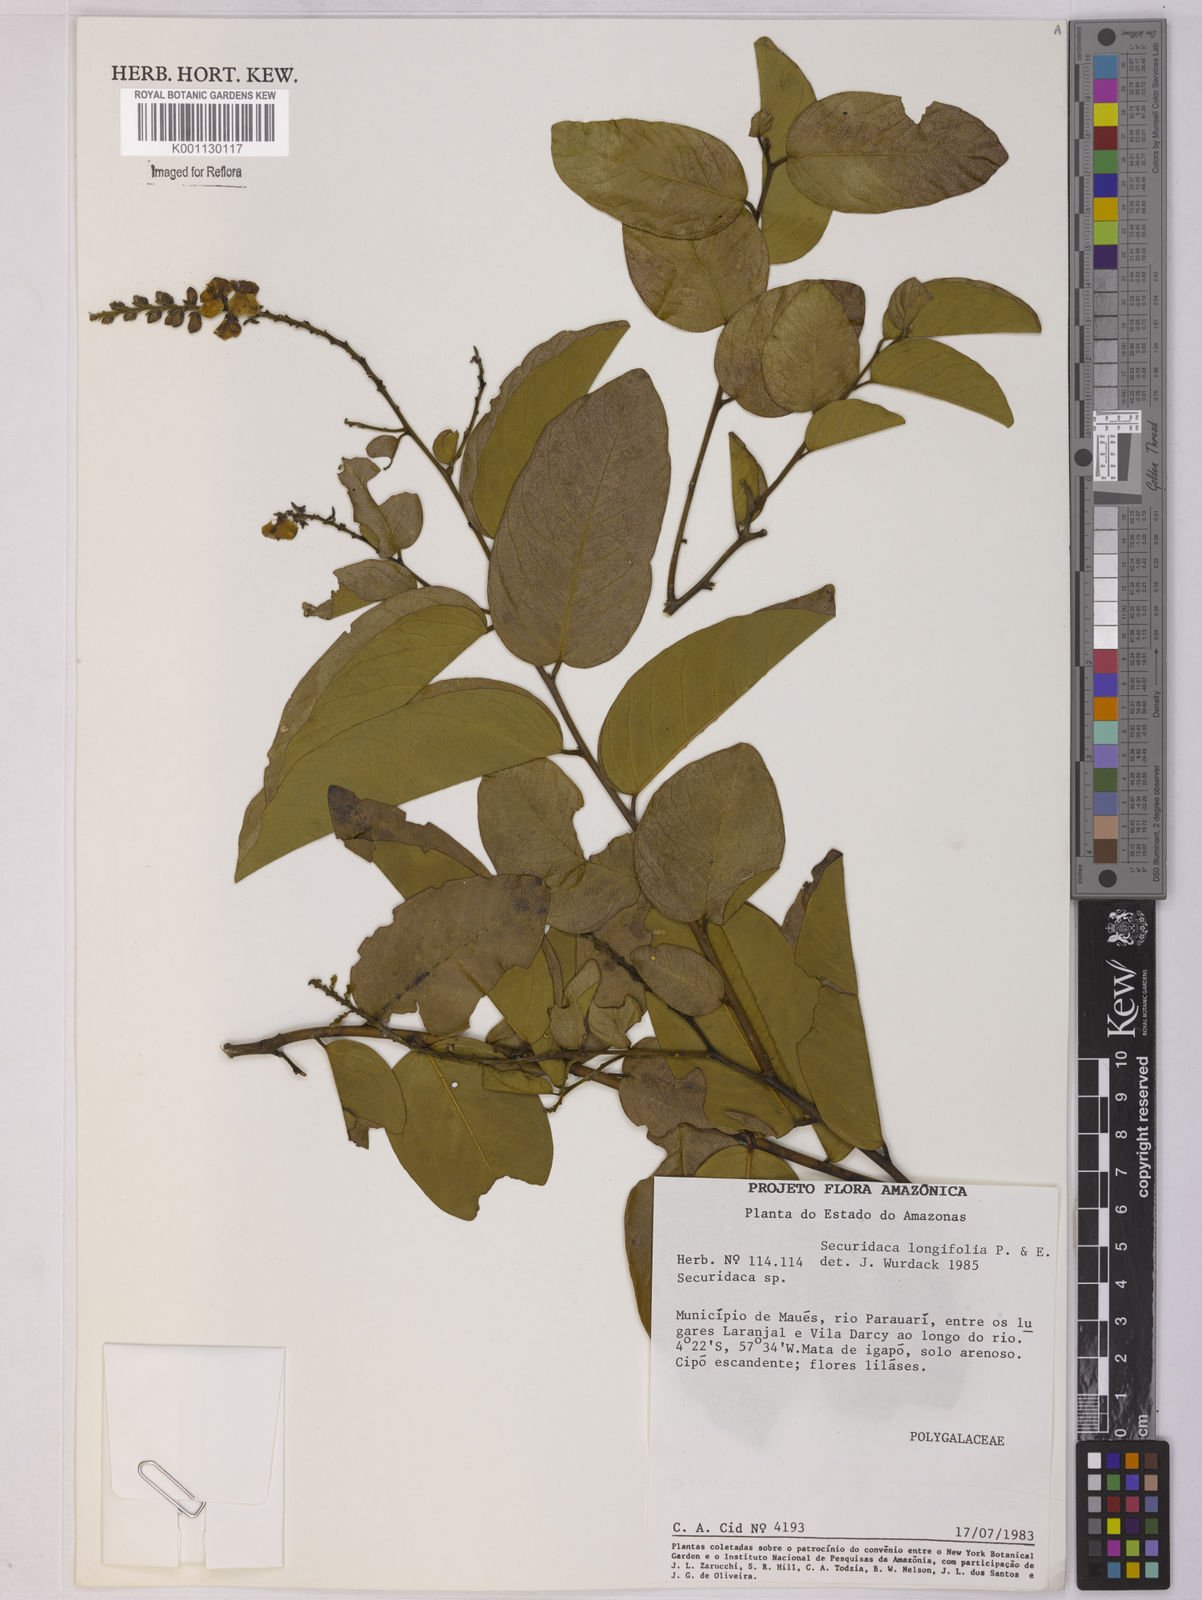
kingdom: Plantae
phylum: Tracheophyta
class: Magnoliopsida
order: Fabales
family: Polygalaceae
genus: Securidaca
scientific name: Securidaca longifolia
